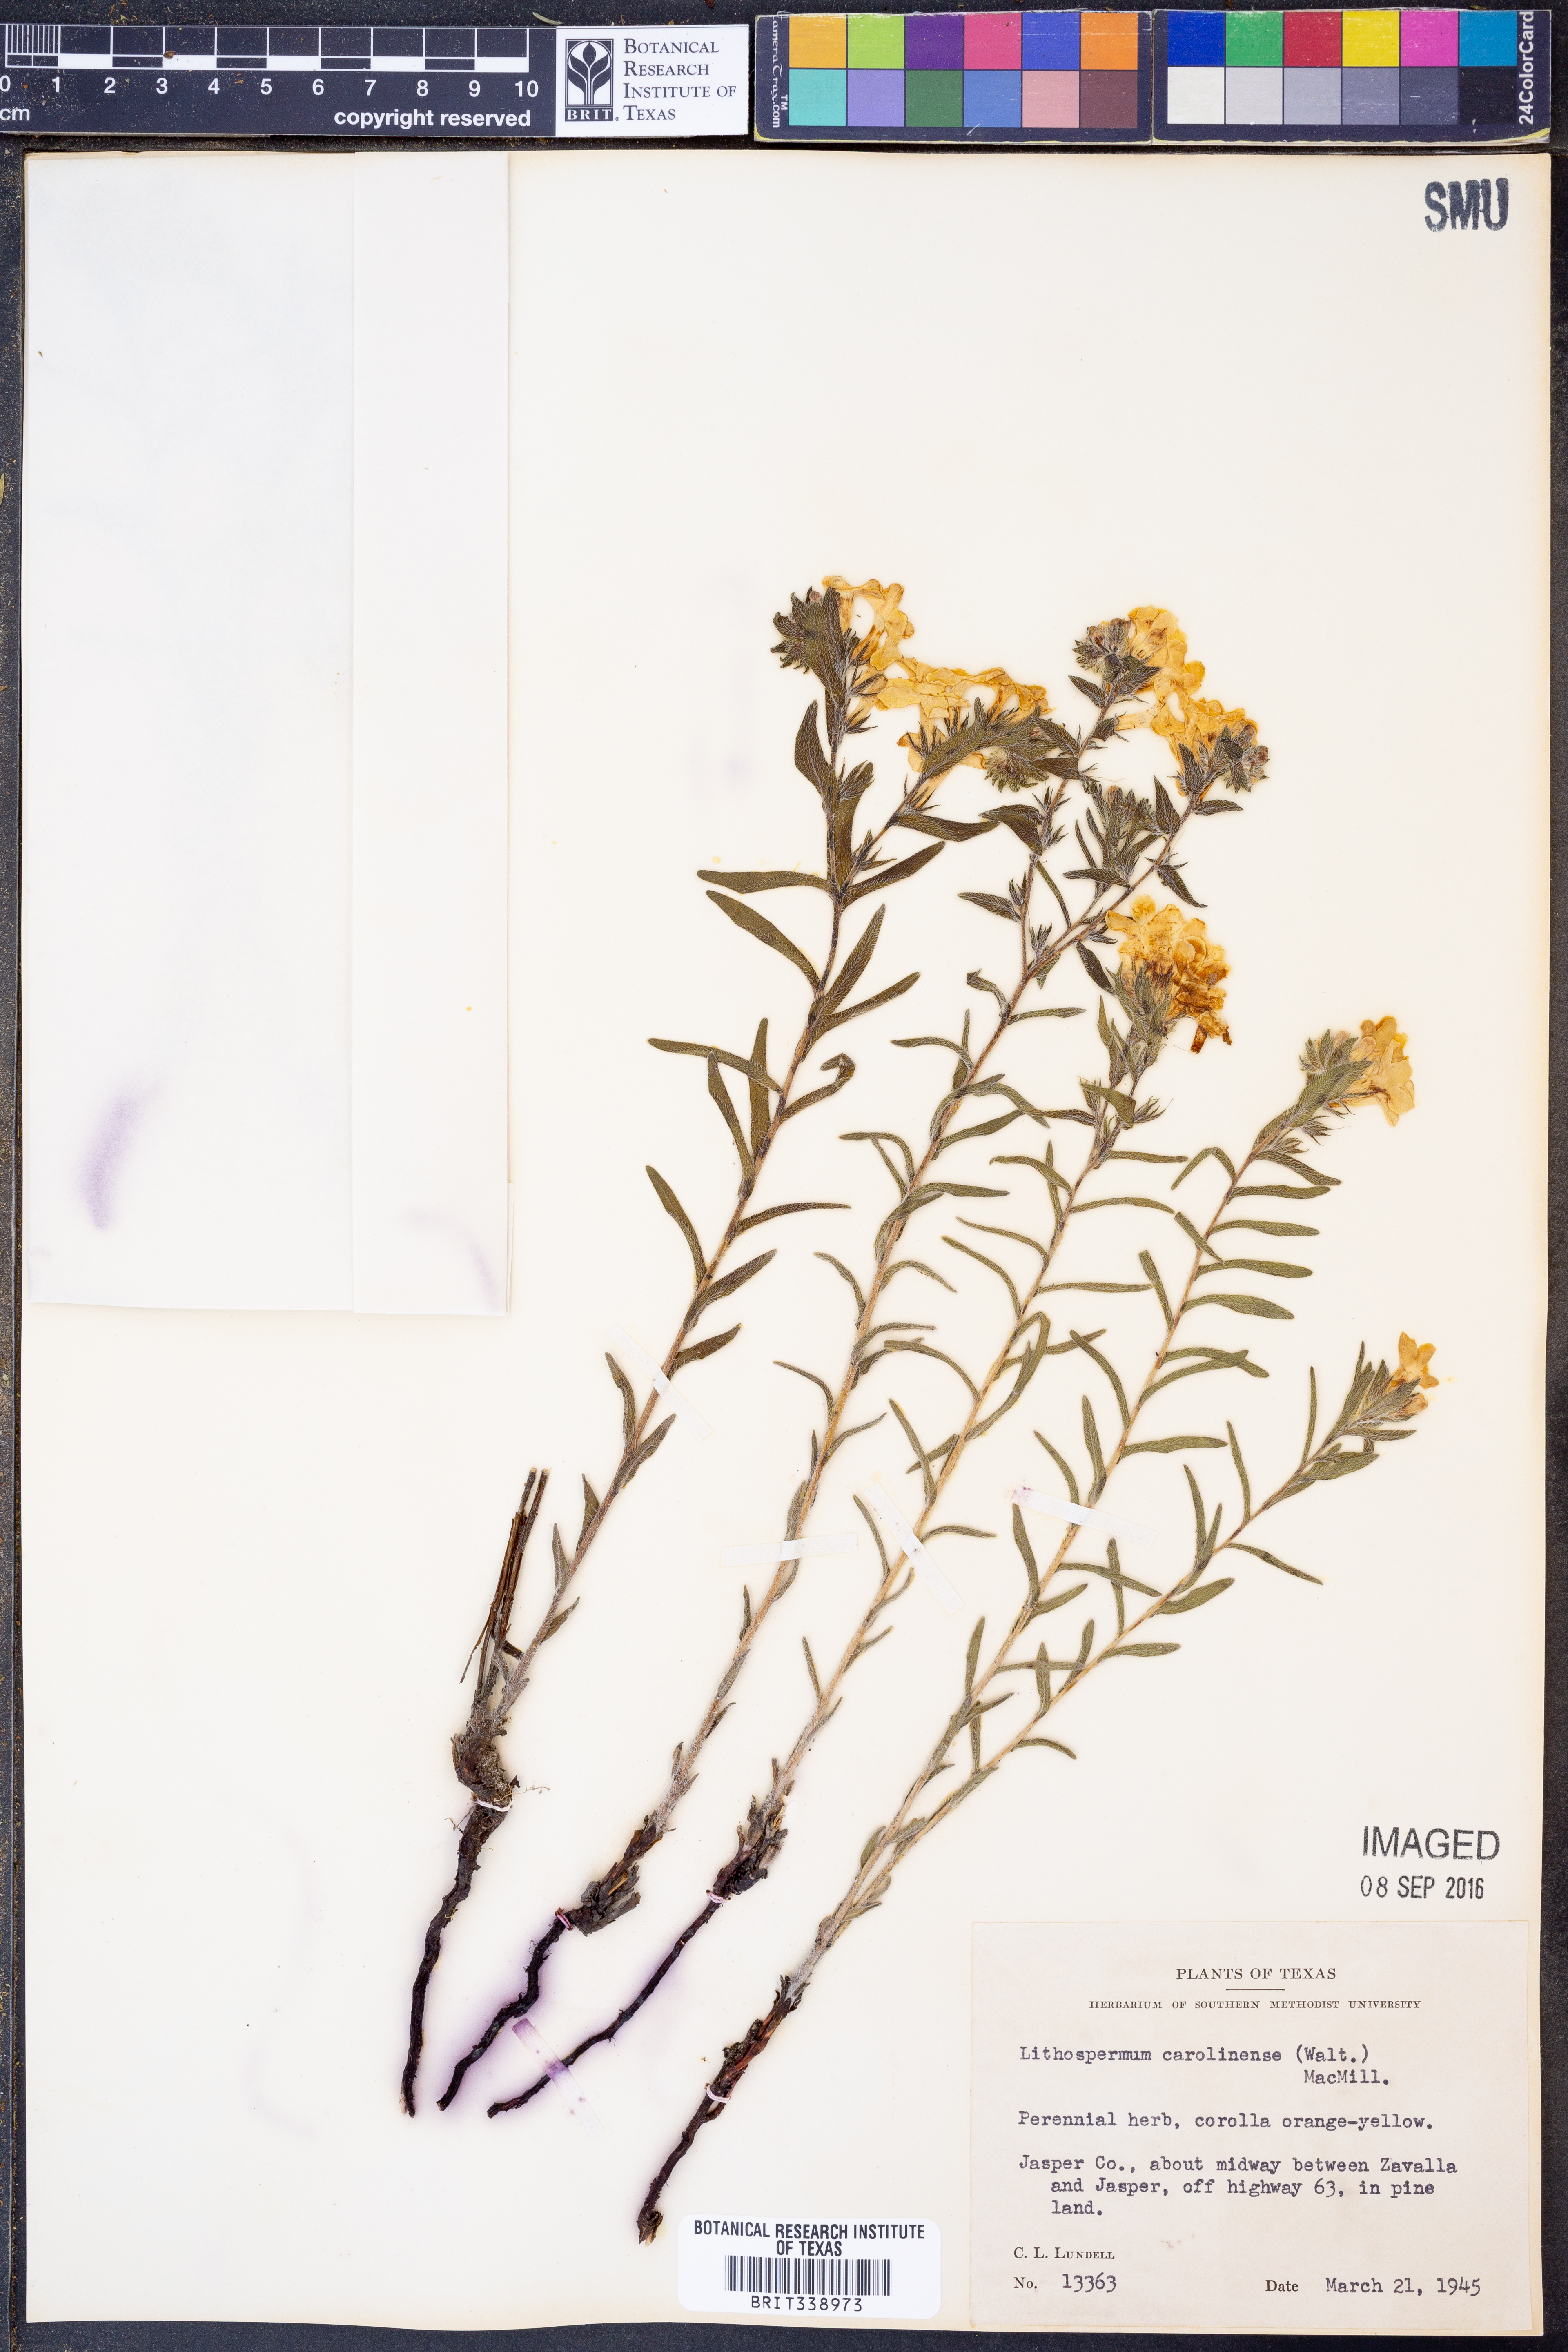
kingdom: Plantae
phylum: Tracheophyta
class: Magnoliopsida
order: Boraginales
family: Boraginaceae
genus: Lithospermum
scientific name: Lithospermum caroliniense
